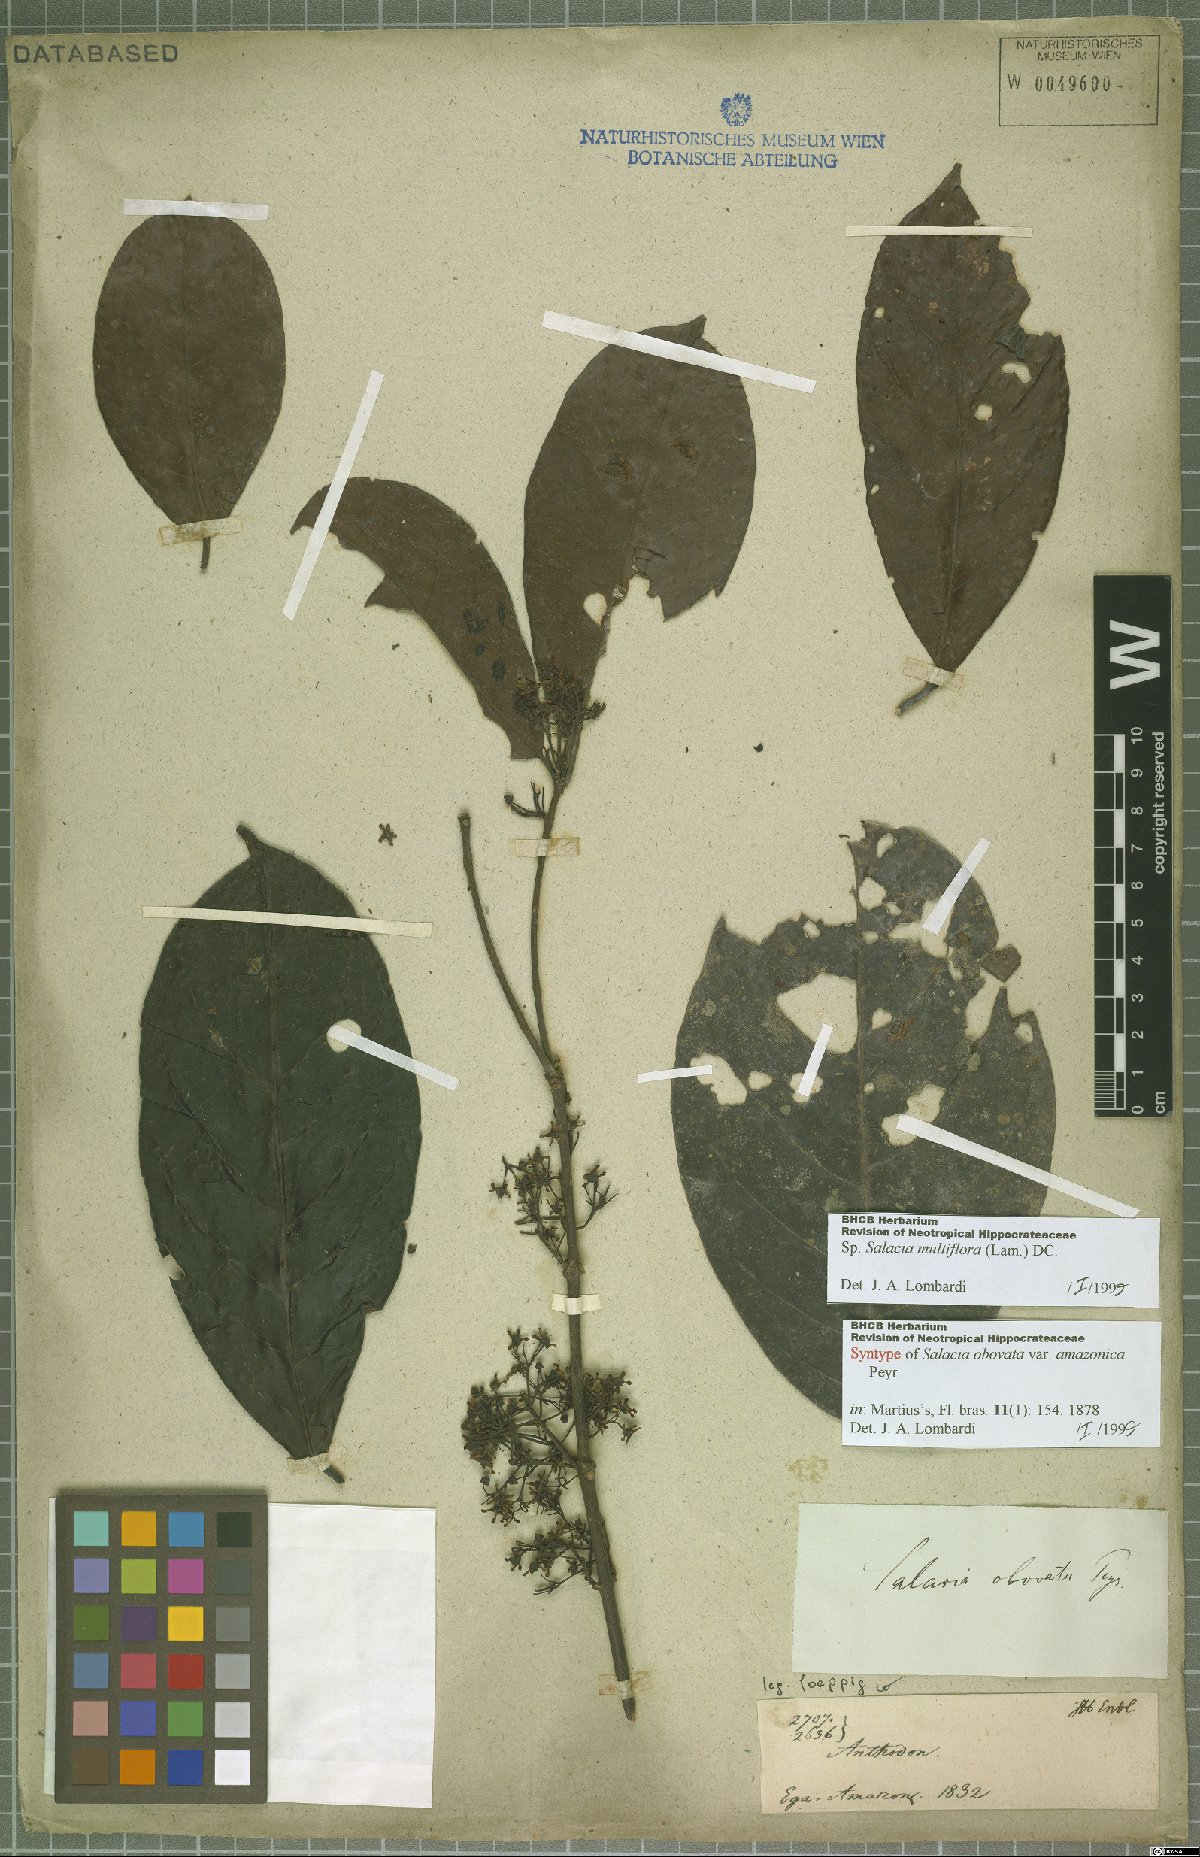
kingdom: Plantae
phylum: Tracheophyta
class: Magnoliopsida
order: Celastrales
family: Celastraceae
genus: Salacia
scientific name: Salacia multiflora
